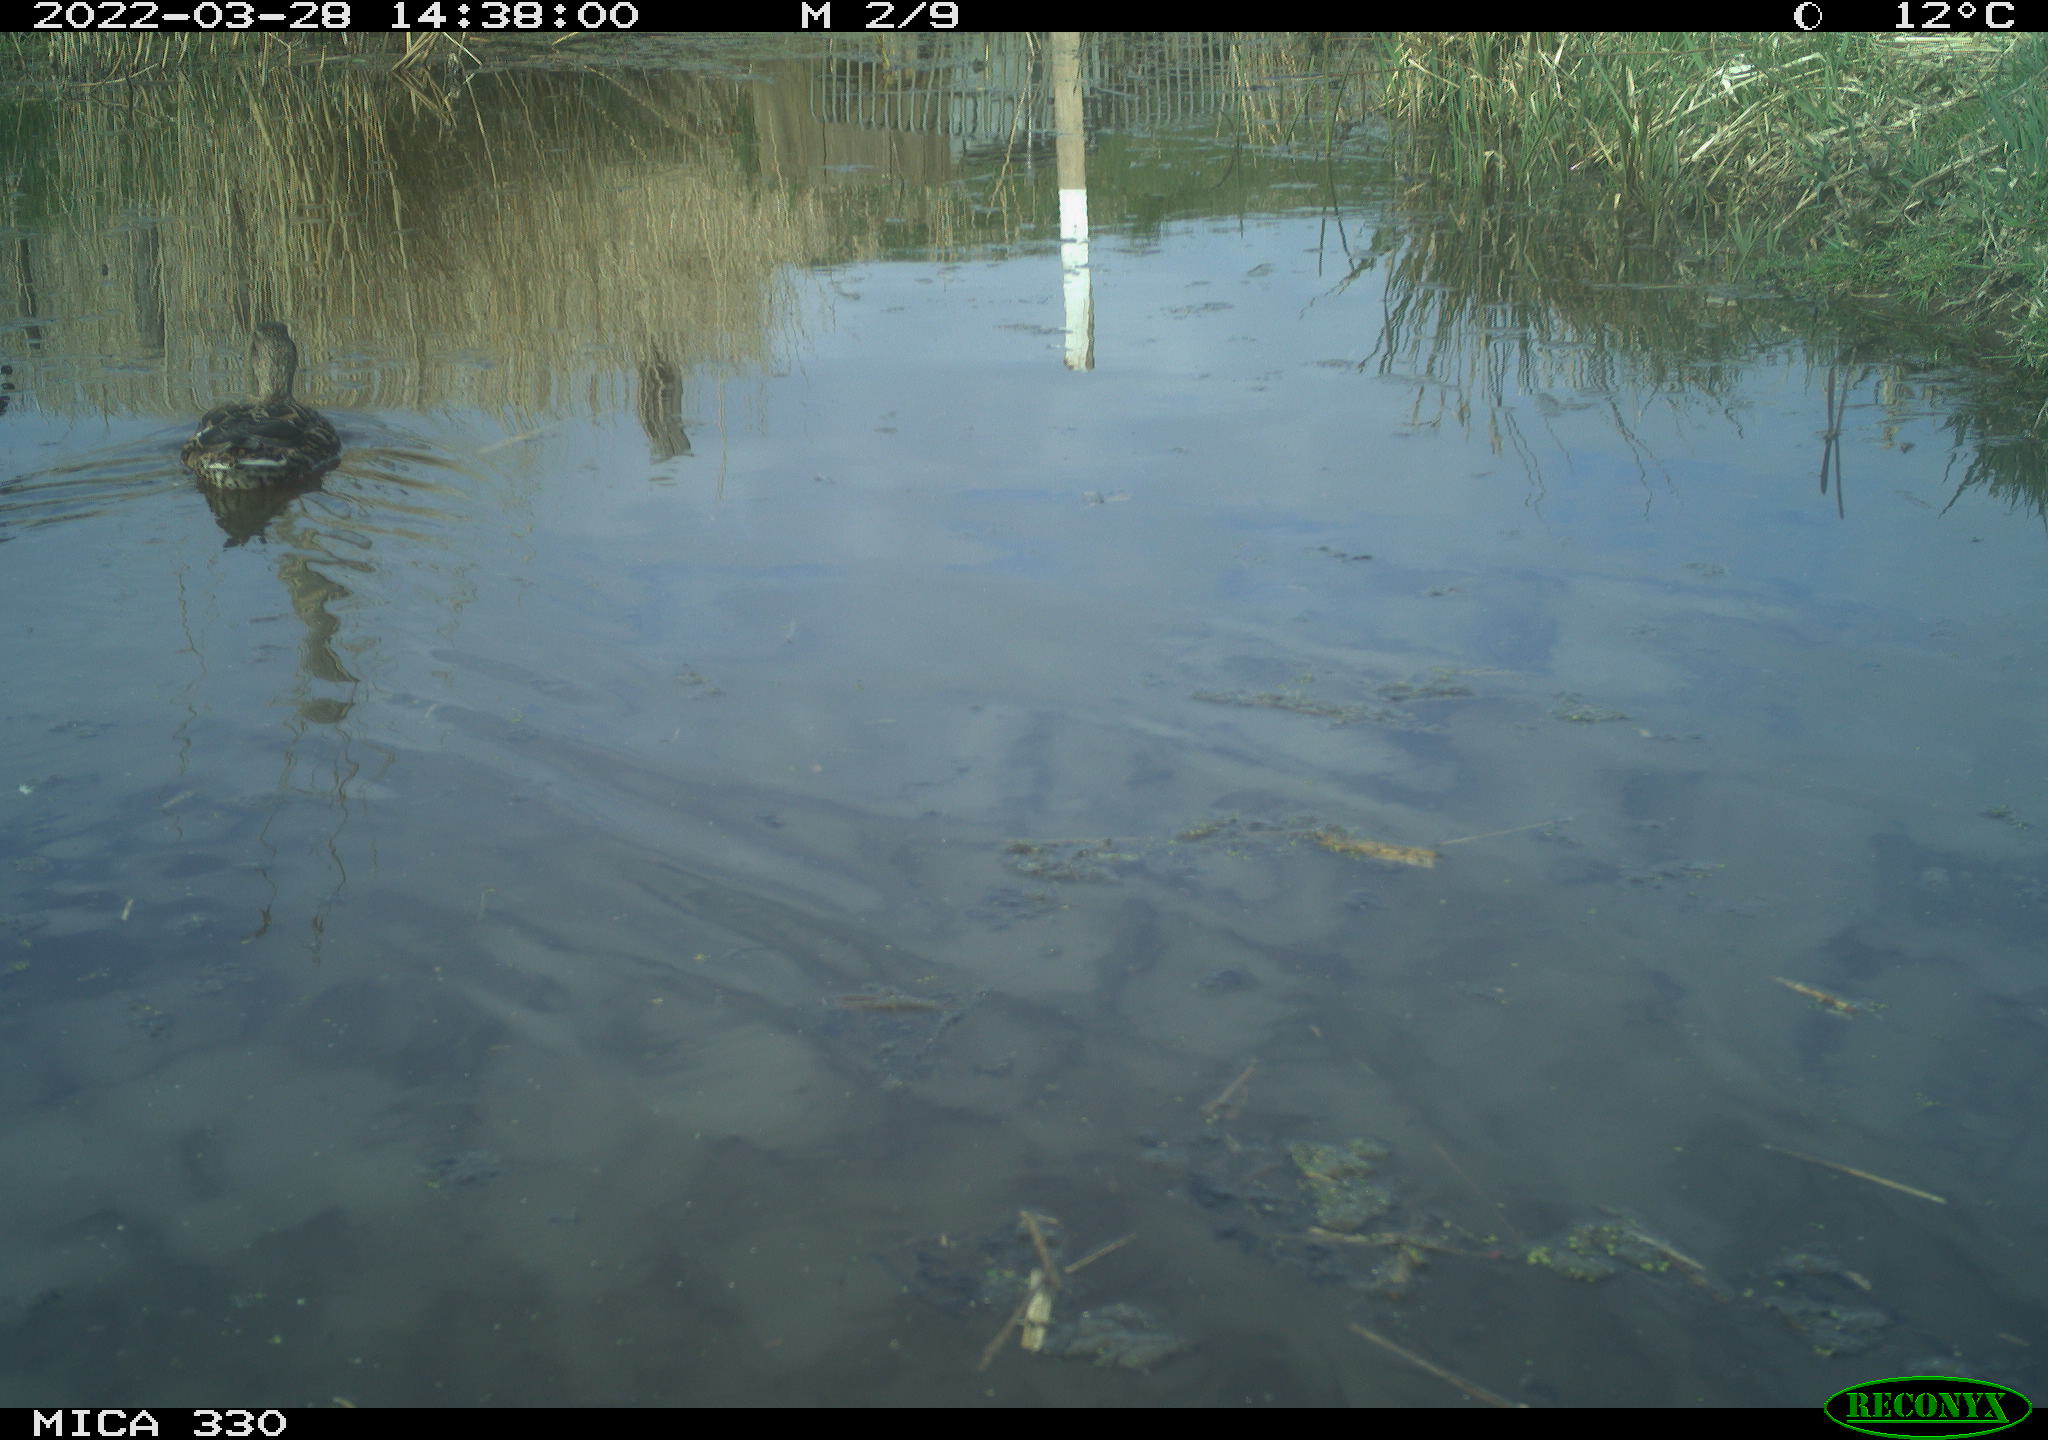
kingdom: Animalia
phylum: Chordata
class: Aves
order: Anseriformes
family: Anatidae
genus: Anas
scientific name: Anas platyrhynchos
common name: Mallard
